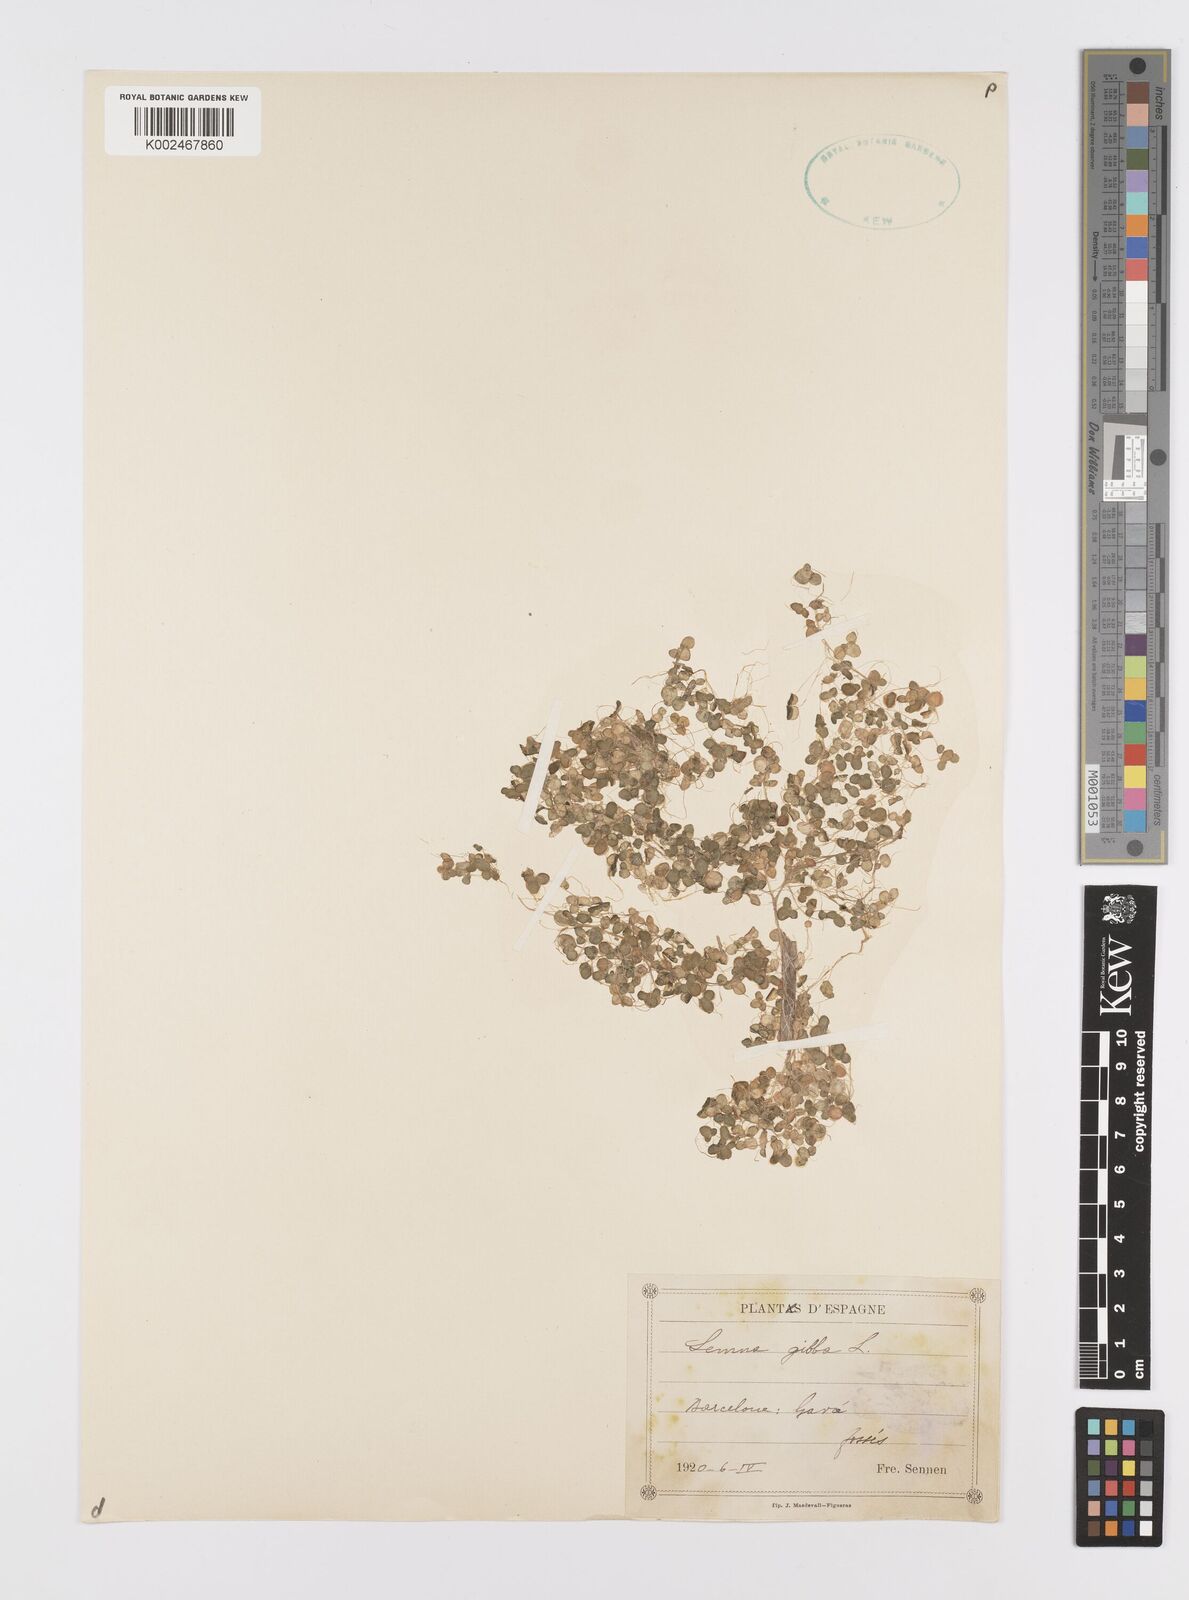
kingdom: Plantae
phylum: Tracheophyta
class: Liliopsida
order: Alismatales
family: Araceae
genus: Lemna
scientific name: Lemna gibba
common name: Fat duckweed
